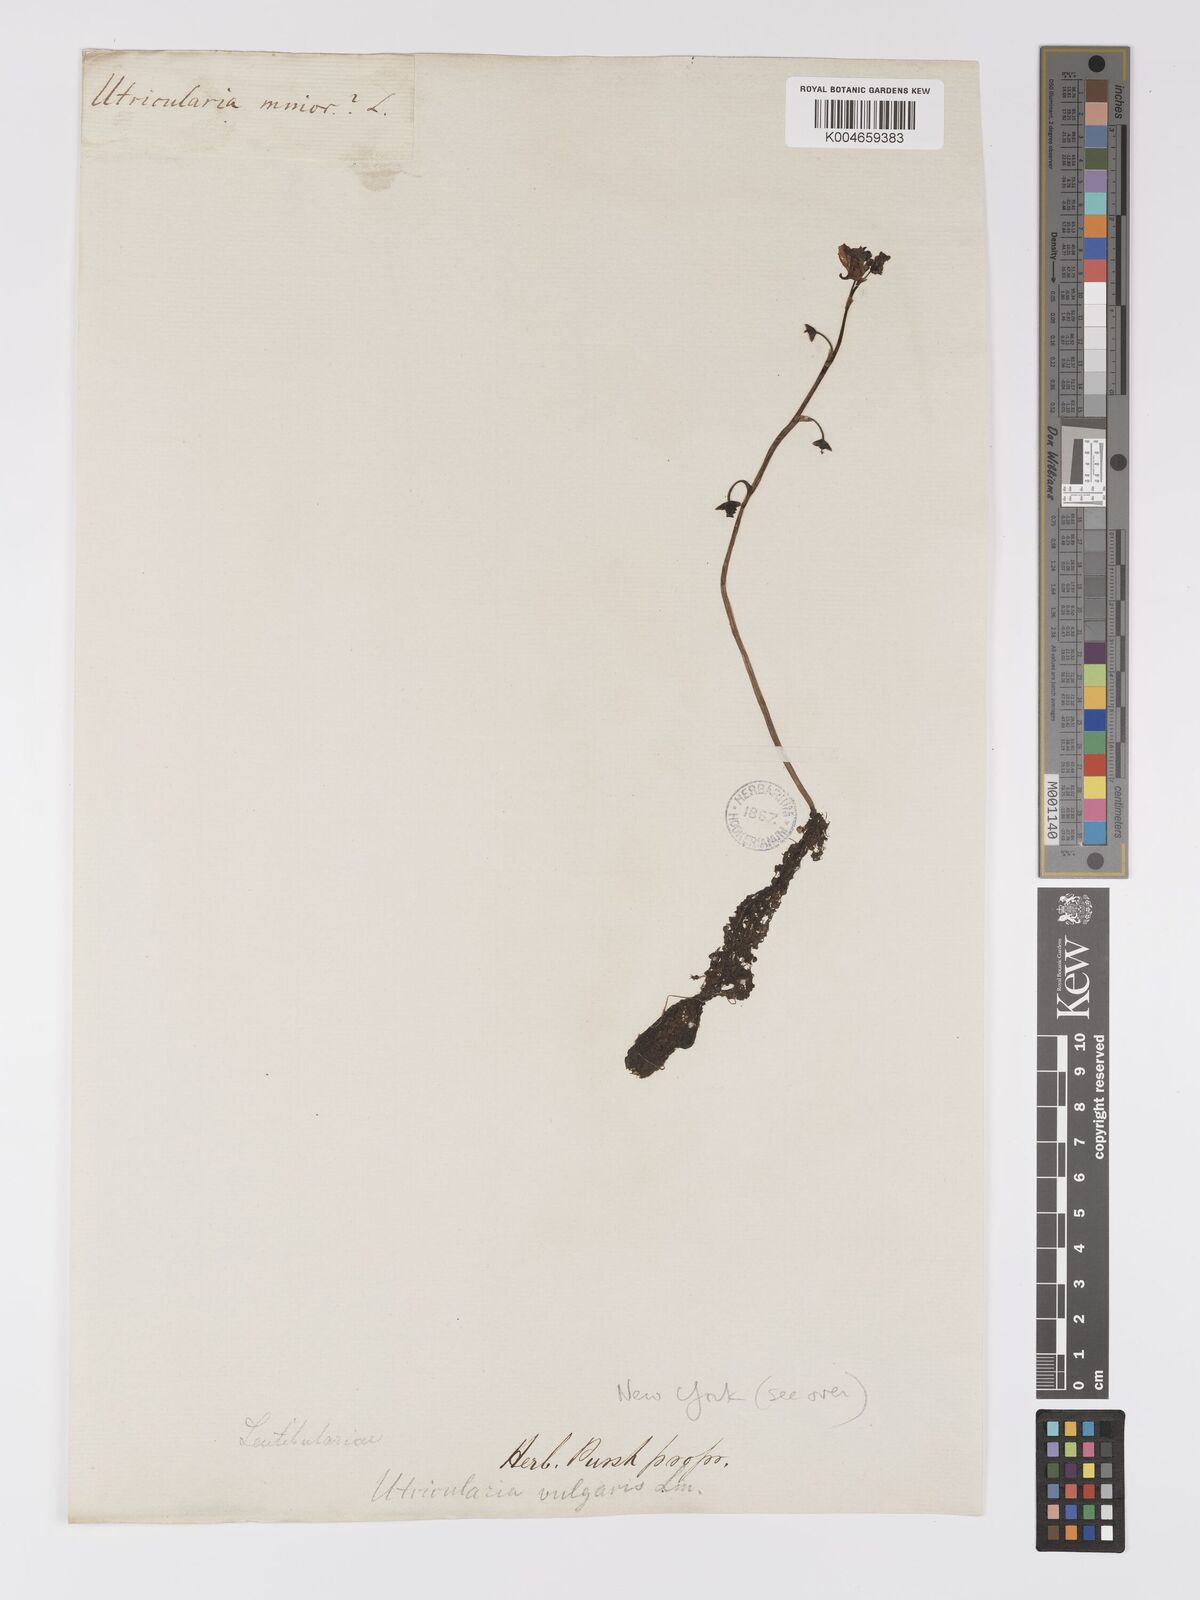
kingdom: Plantae
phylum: Tracheophyta
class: Magnoliopsida
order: Lamiales
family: Lentibulariaceae
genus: Utricularia
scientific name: Utricularia macrorhiza
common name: Common bladderwort
